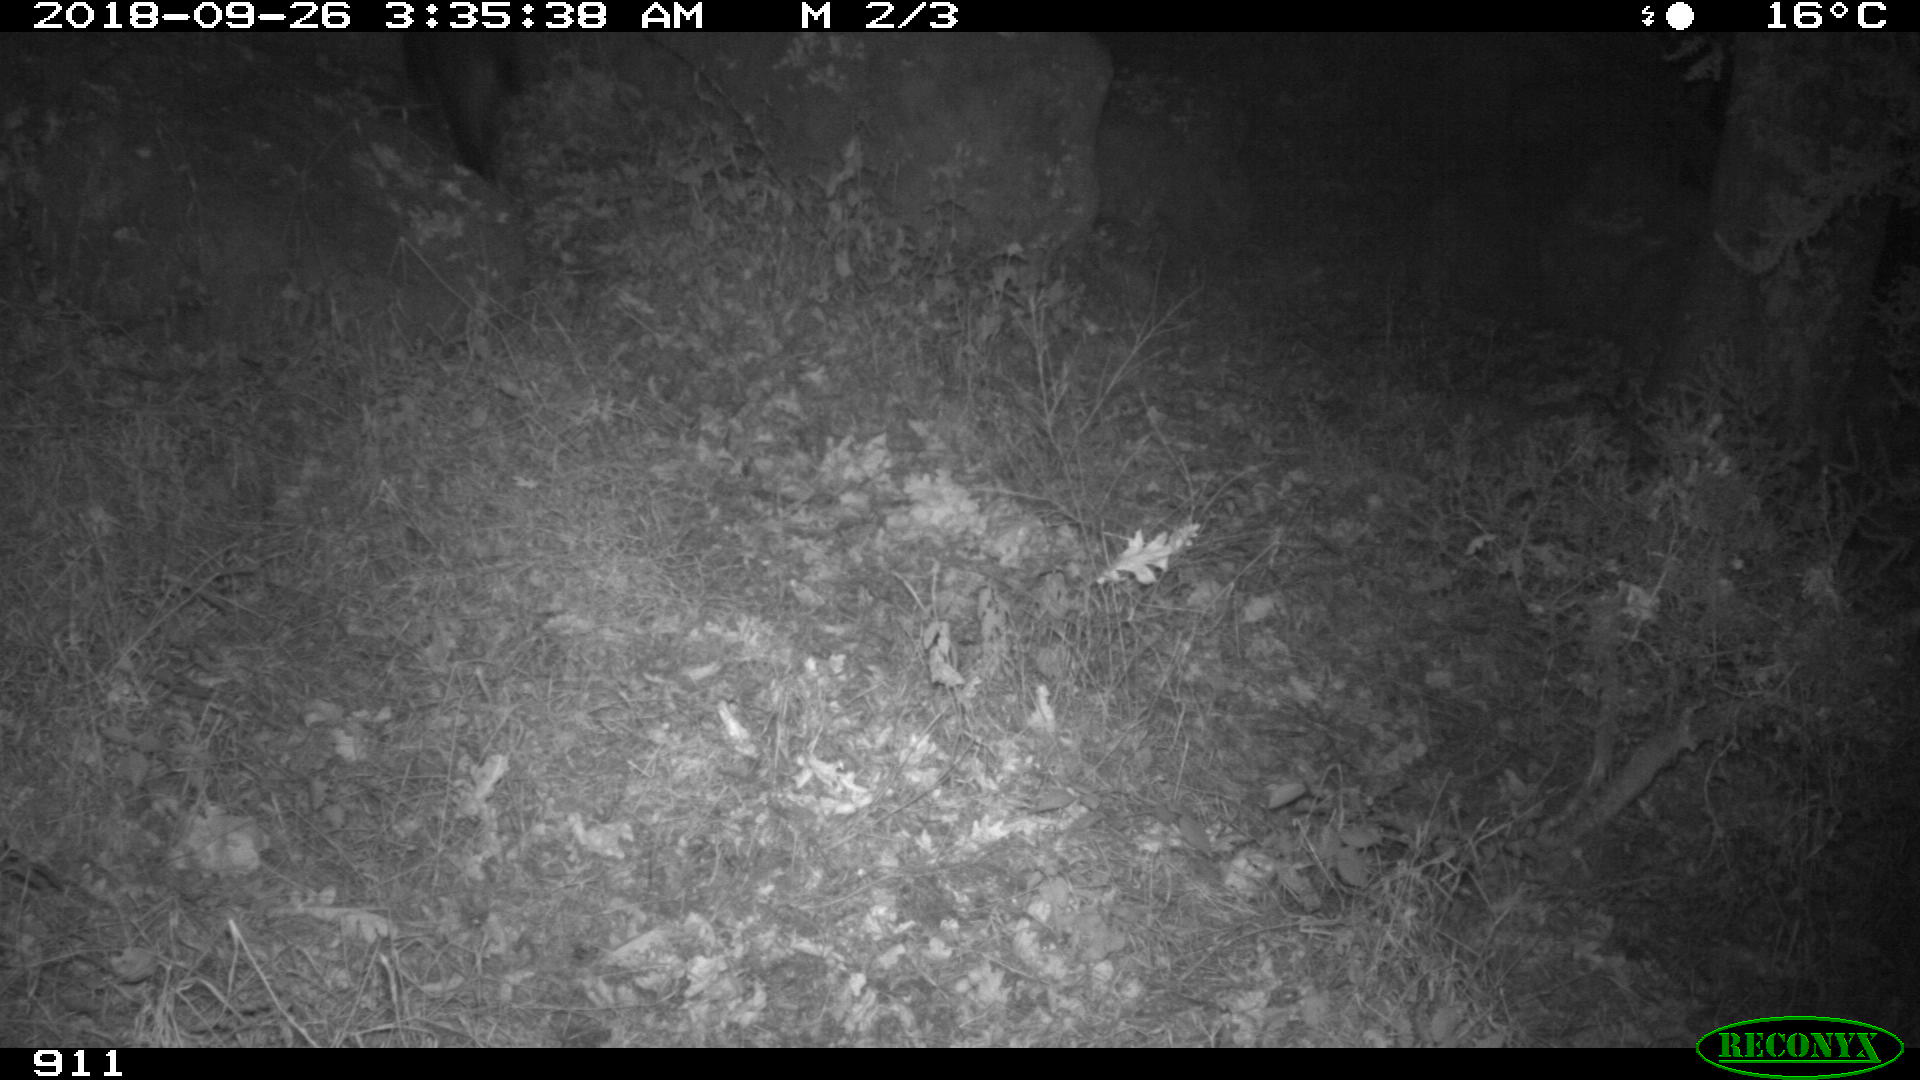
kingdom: Animalia
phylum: Chordata
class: Mammalia
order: Artiodactyla
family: Suidae
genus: Sus
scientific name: Sus scrofa
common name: Wild boar
